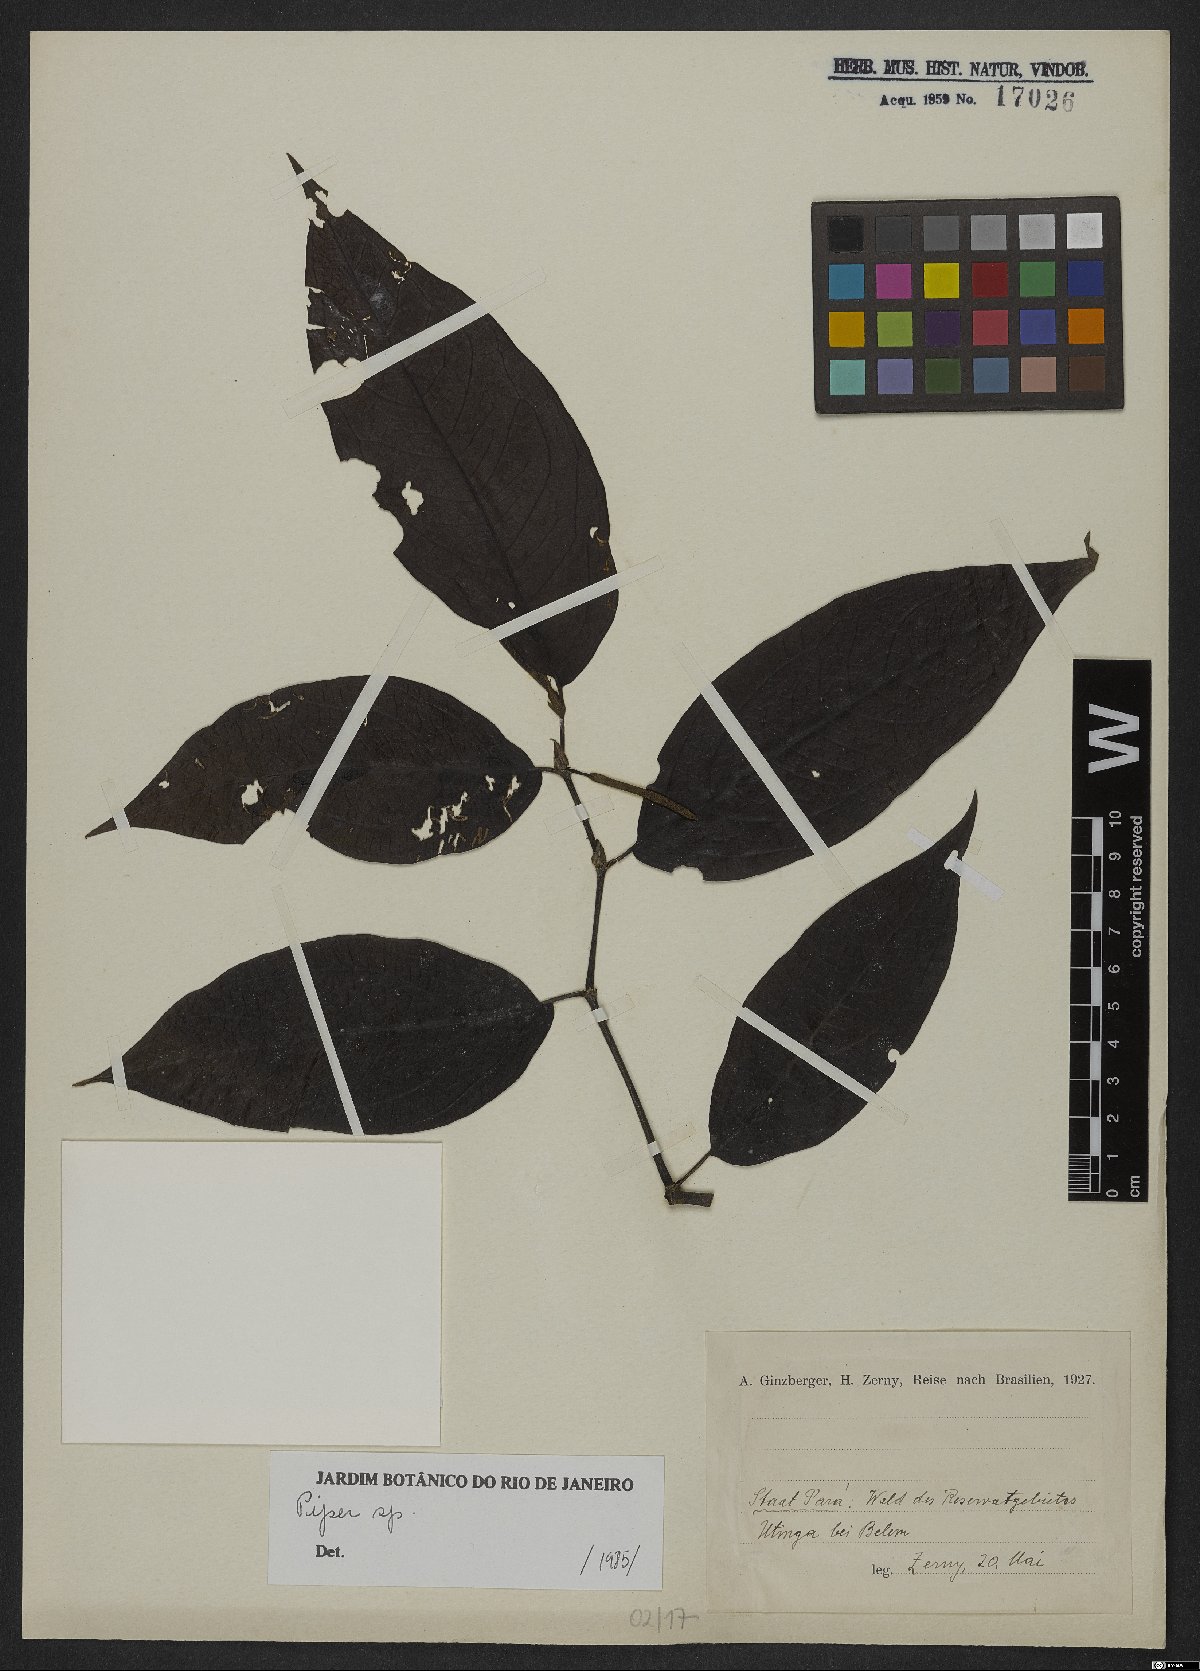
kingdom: Plantae
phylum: Tracheophyta
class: Magnoliopsida
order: Piperales
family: Piperaceae
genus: Piper
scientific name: Piper
